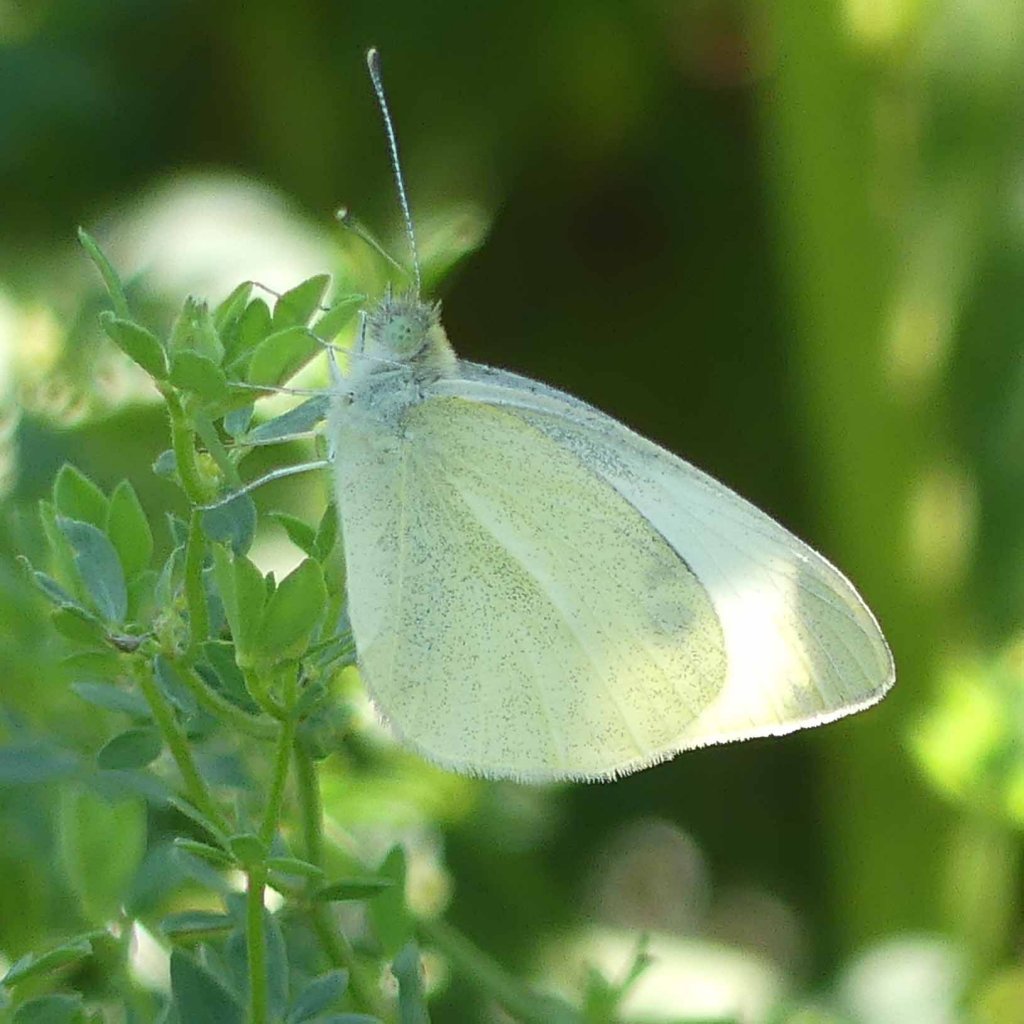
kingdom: Animalia
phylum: Arthropoda
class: Insecta
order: Lepidoptera
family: Pieridae
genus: Pieris
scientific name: Pieris rapae
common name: Cabbage White
